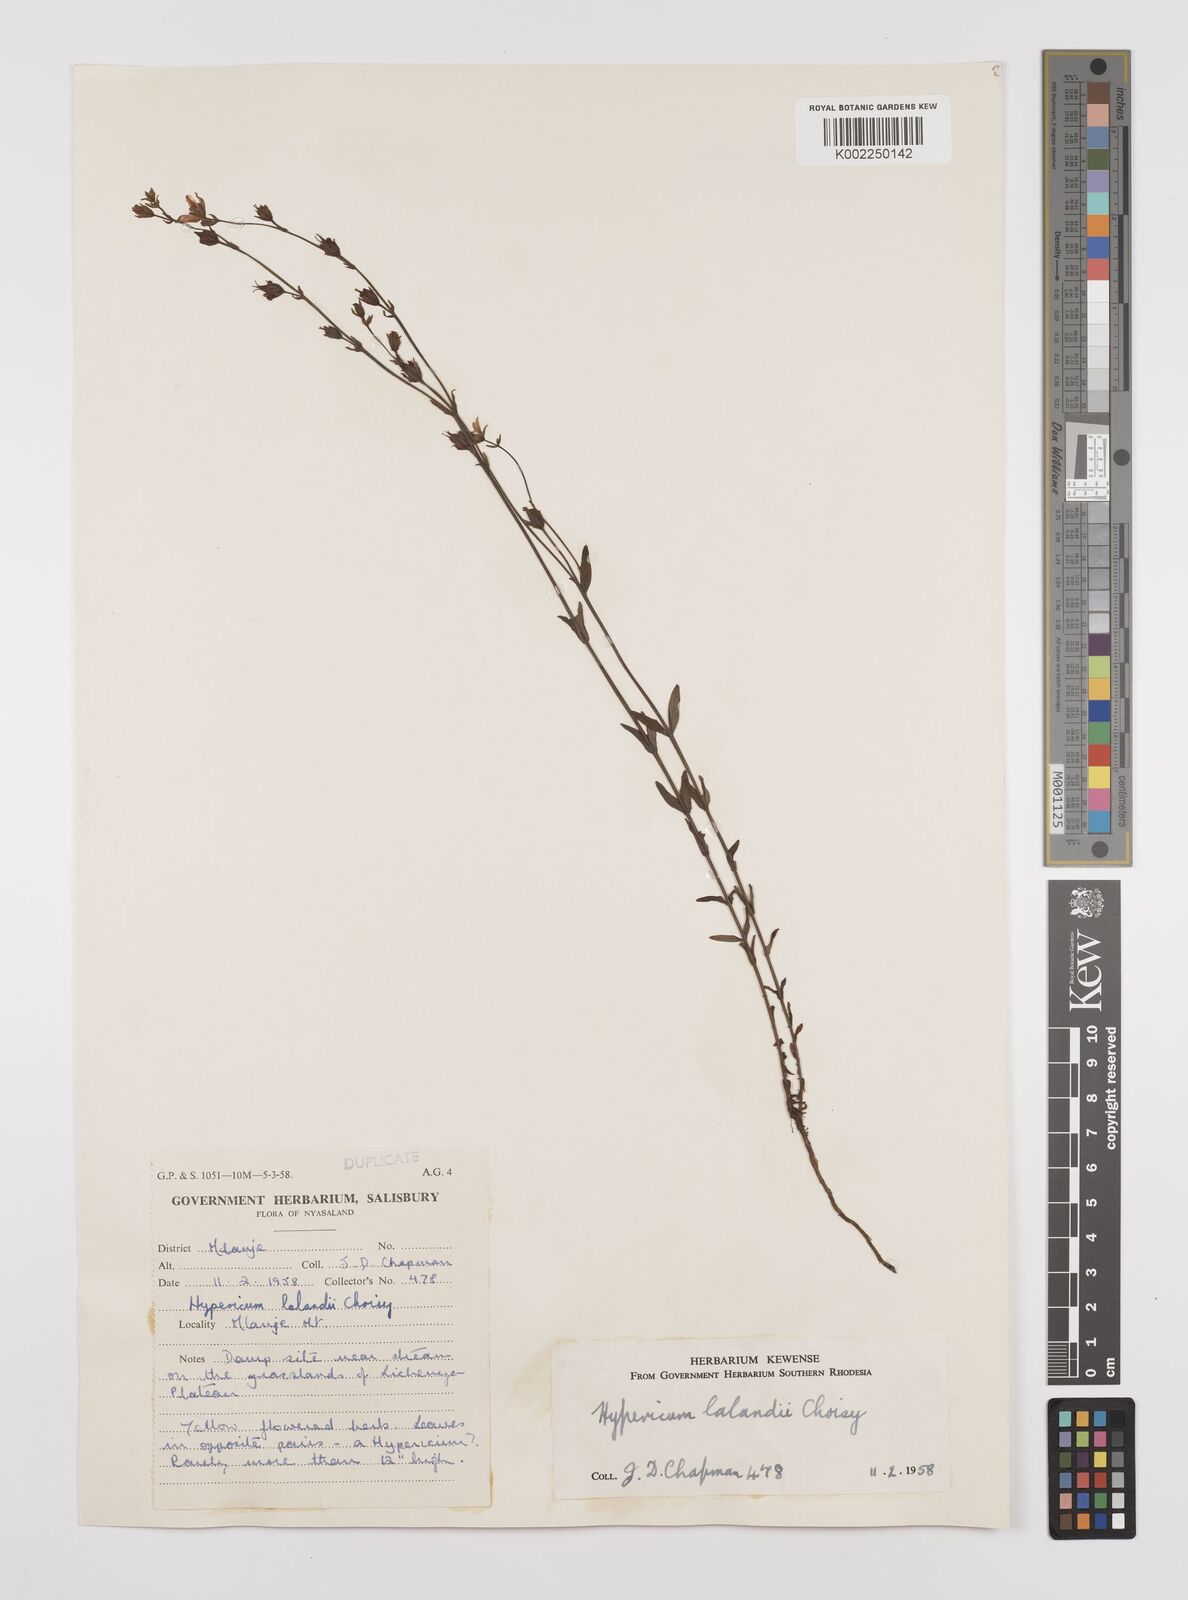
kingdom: Plantae
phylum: Tracheophyta
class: Magnoliopsida
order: Malpighiales
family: Hypericaceae
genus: Hypericum
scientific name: Hypericum lalandii
